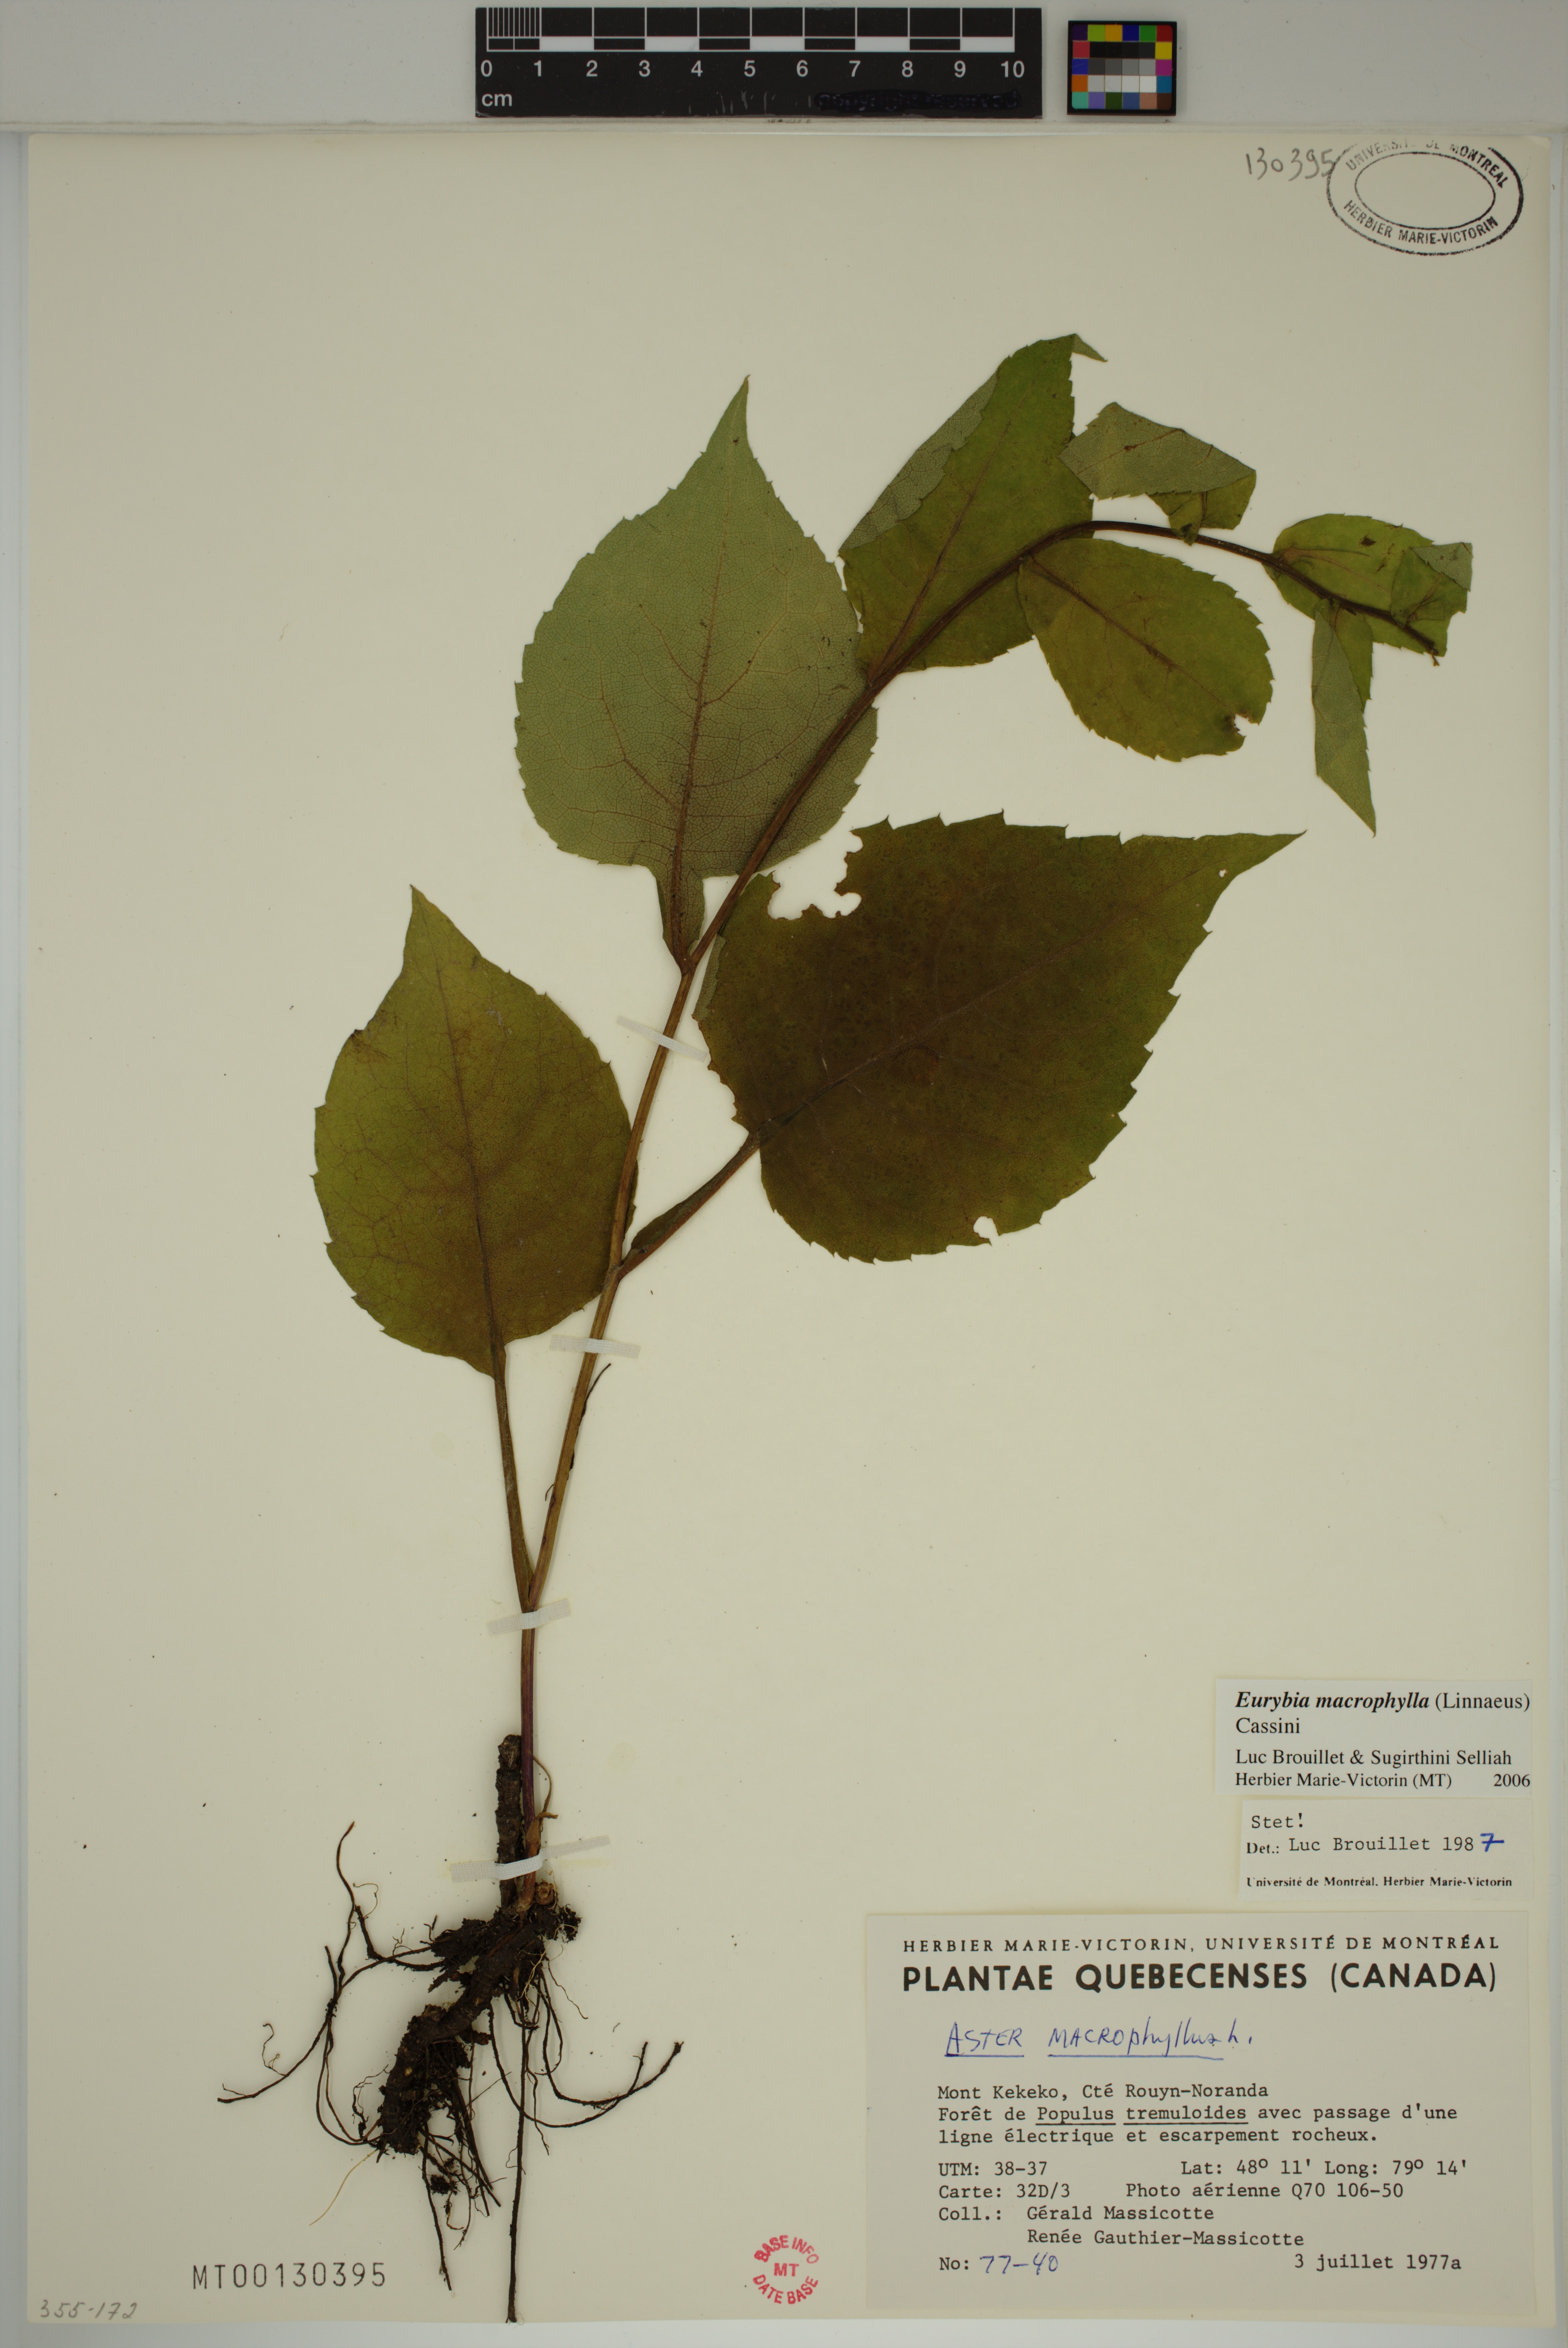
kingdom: Plantae
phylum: Tracheophyta
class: Magnoliopsida
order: Asterales
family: Asteraceae
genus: Eurybia
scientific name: Eurybia macrophylla
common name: Big-leaved aster
